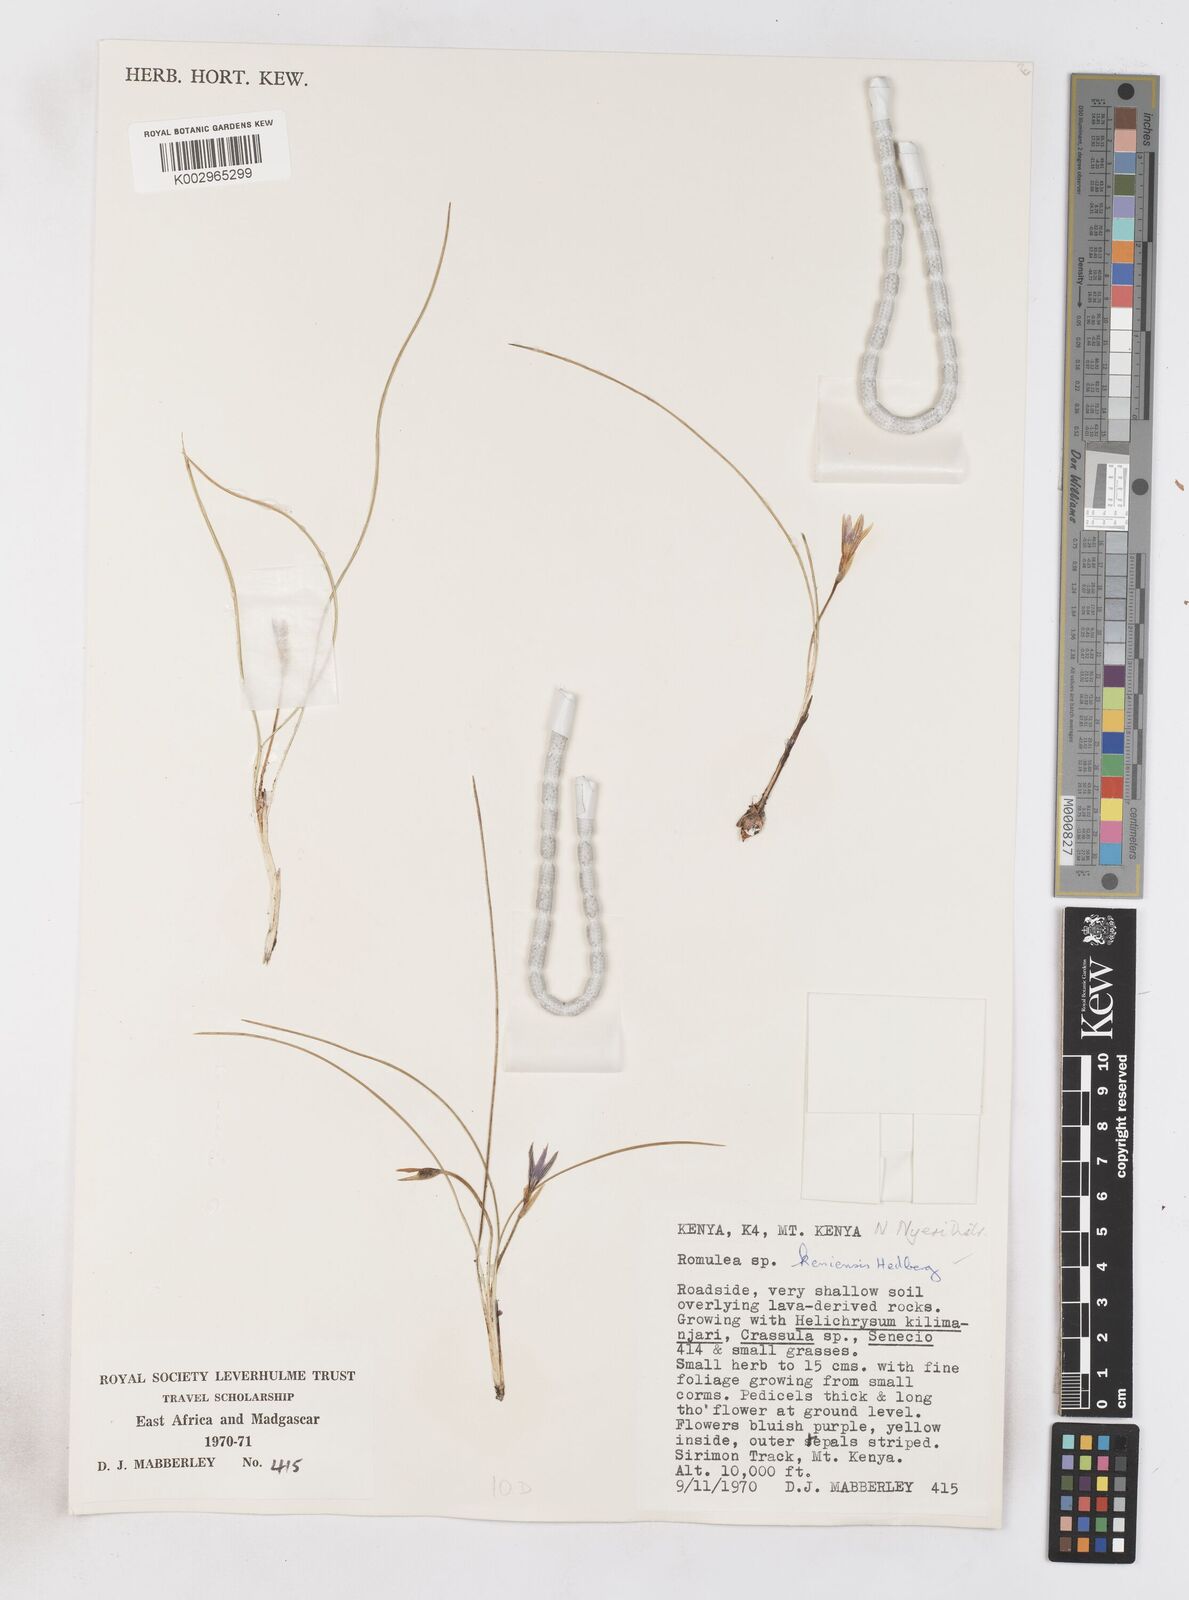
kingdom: Plantae
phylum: Tracheophyta
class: Liliopsida
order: Asparagales
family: Iridaceae
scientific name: Iridaceae
